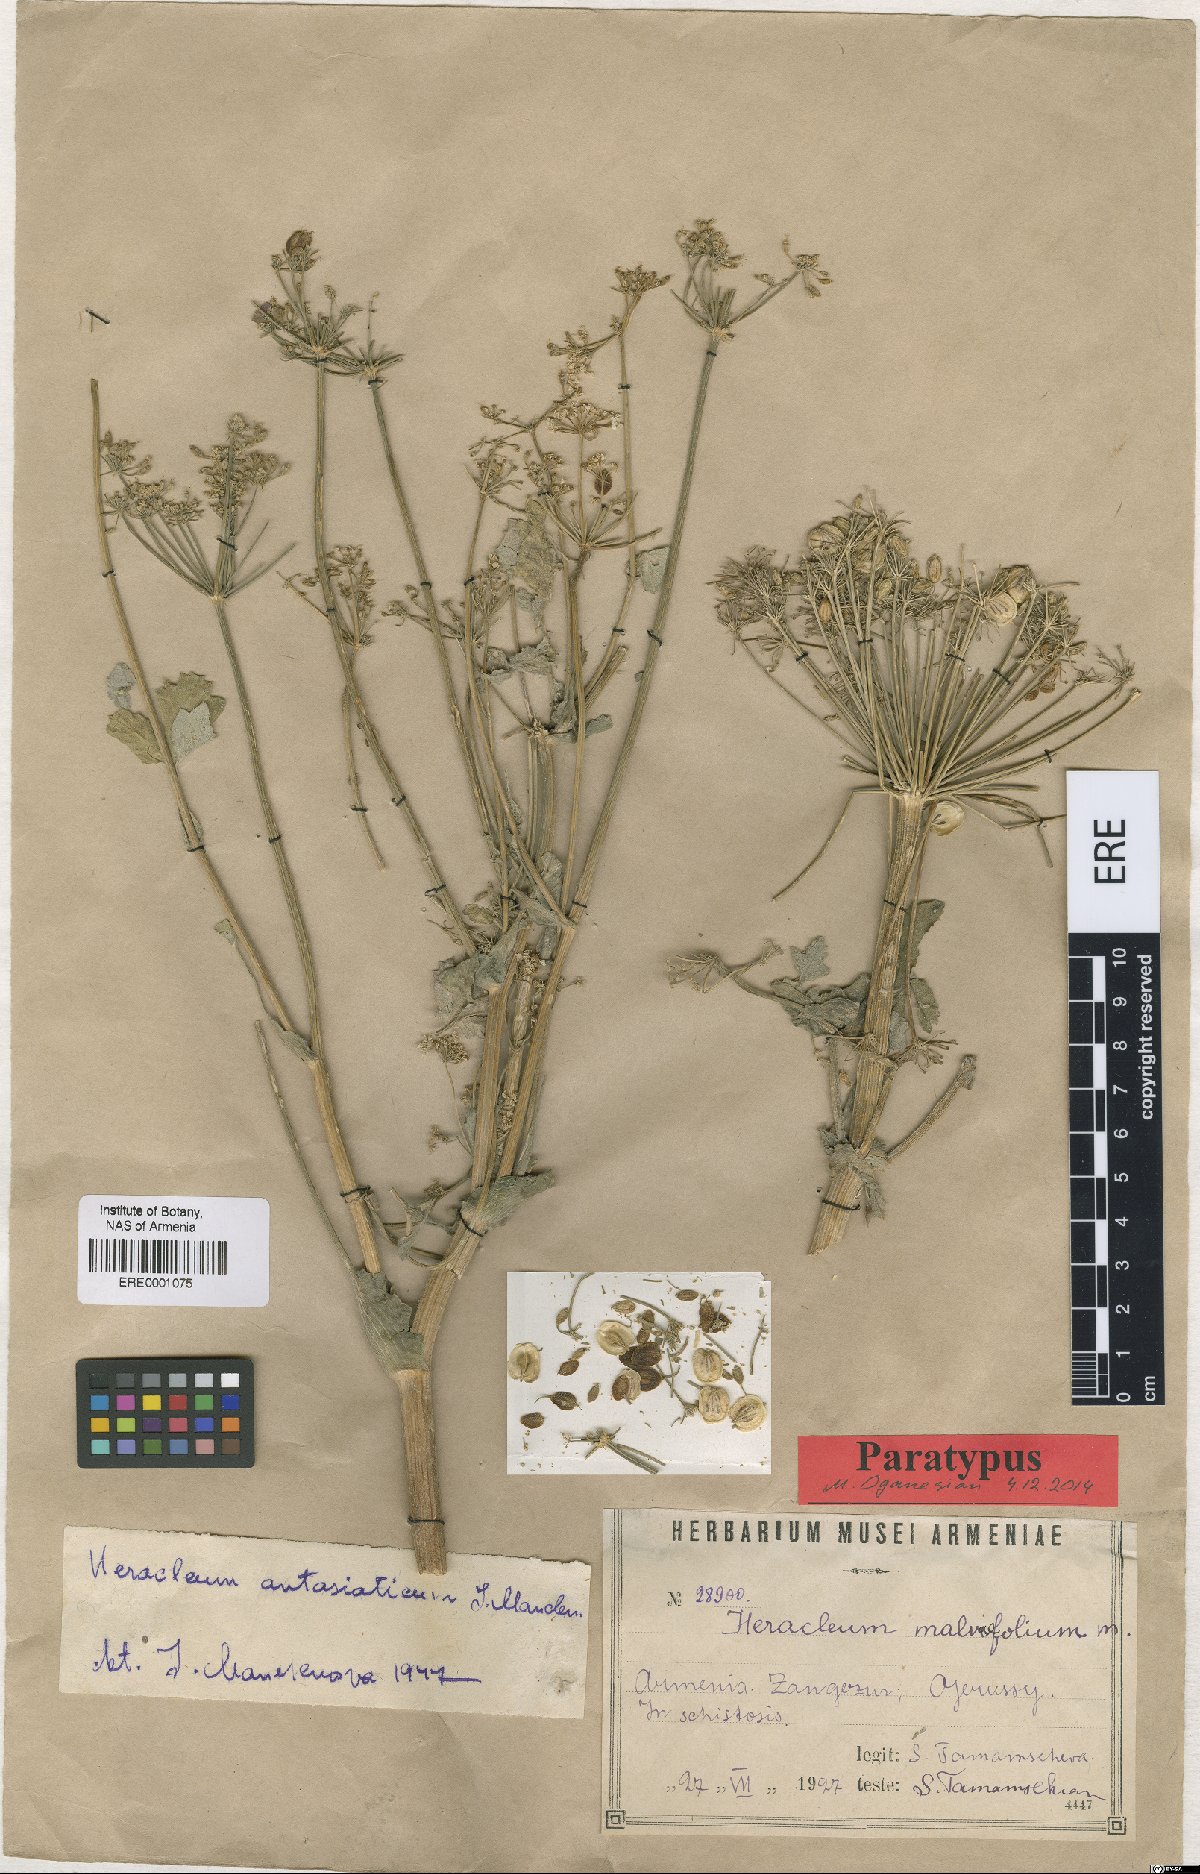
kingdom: Plantae
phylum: Tracheophyta
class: Magnoliopsida
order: Apiales
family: Apiaceae
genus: Heracleum
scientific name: Heracleum antasiaticum
